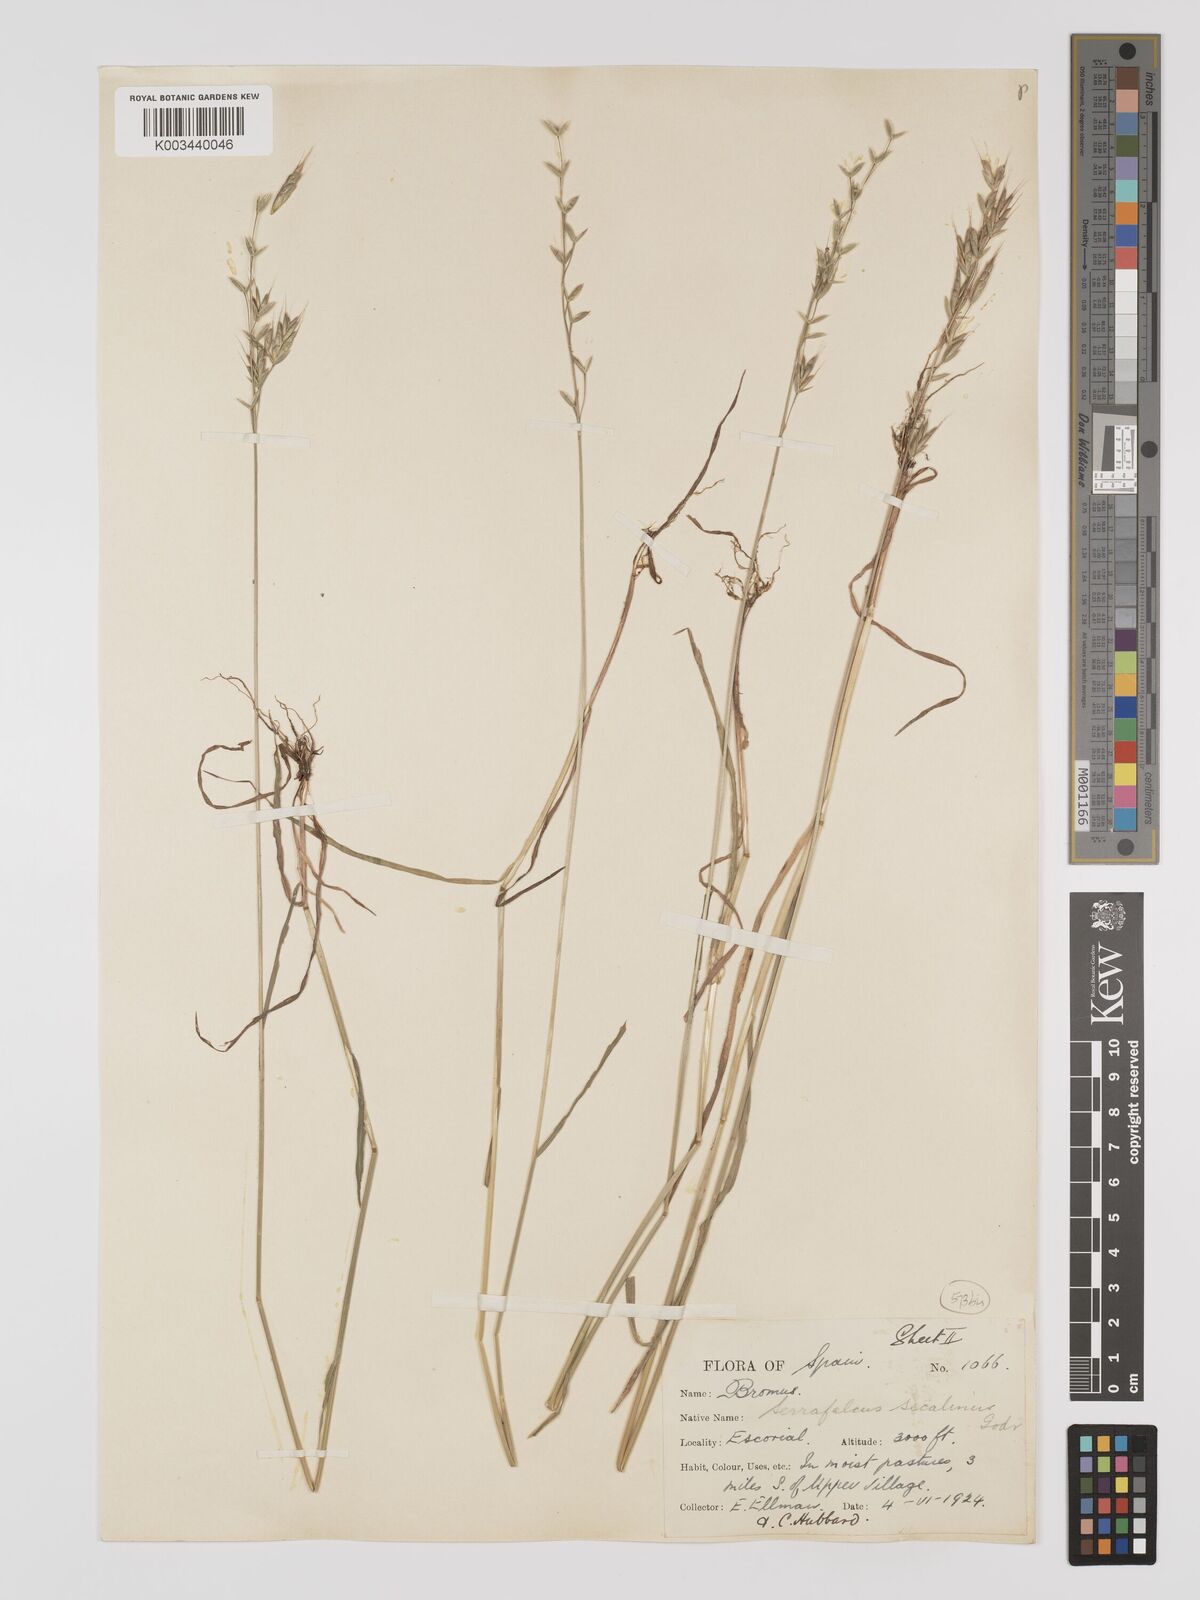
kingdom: Plantae
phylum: Tracheophyta
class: Liliopsida
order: Poales
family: Poaceae
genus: Bromus
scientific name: Bromus secalinus
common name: Rye brome
